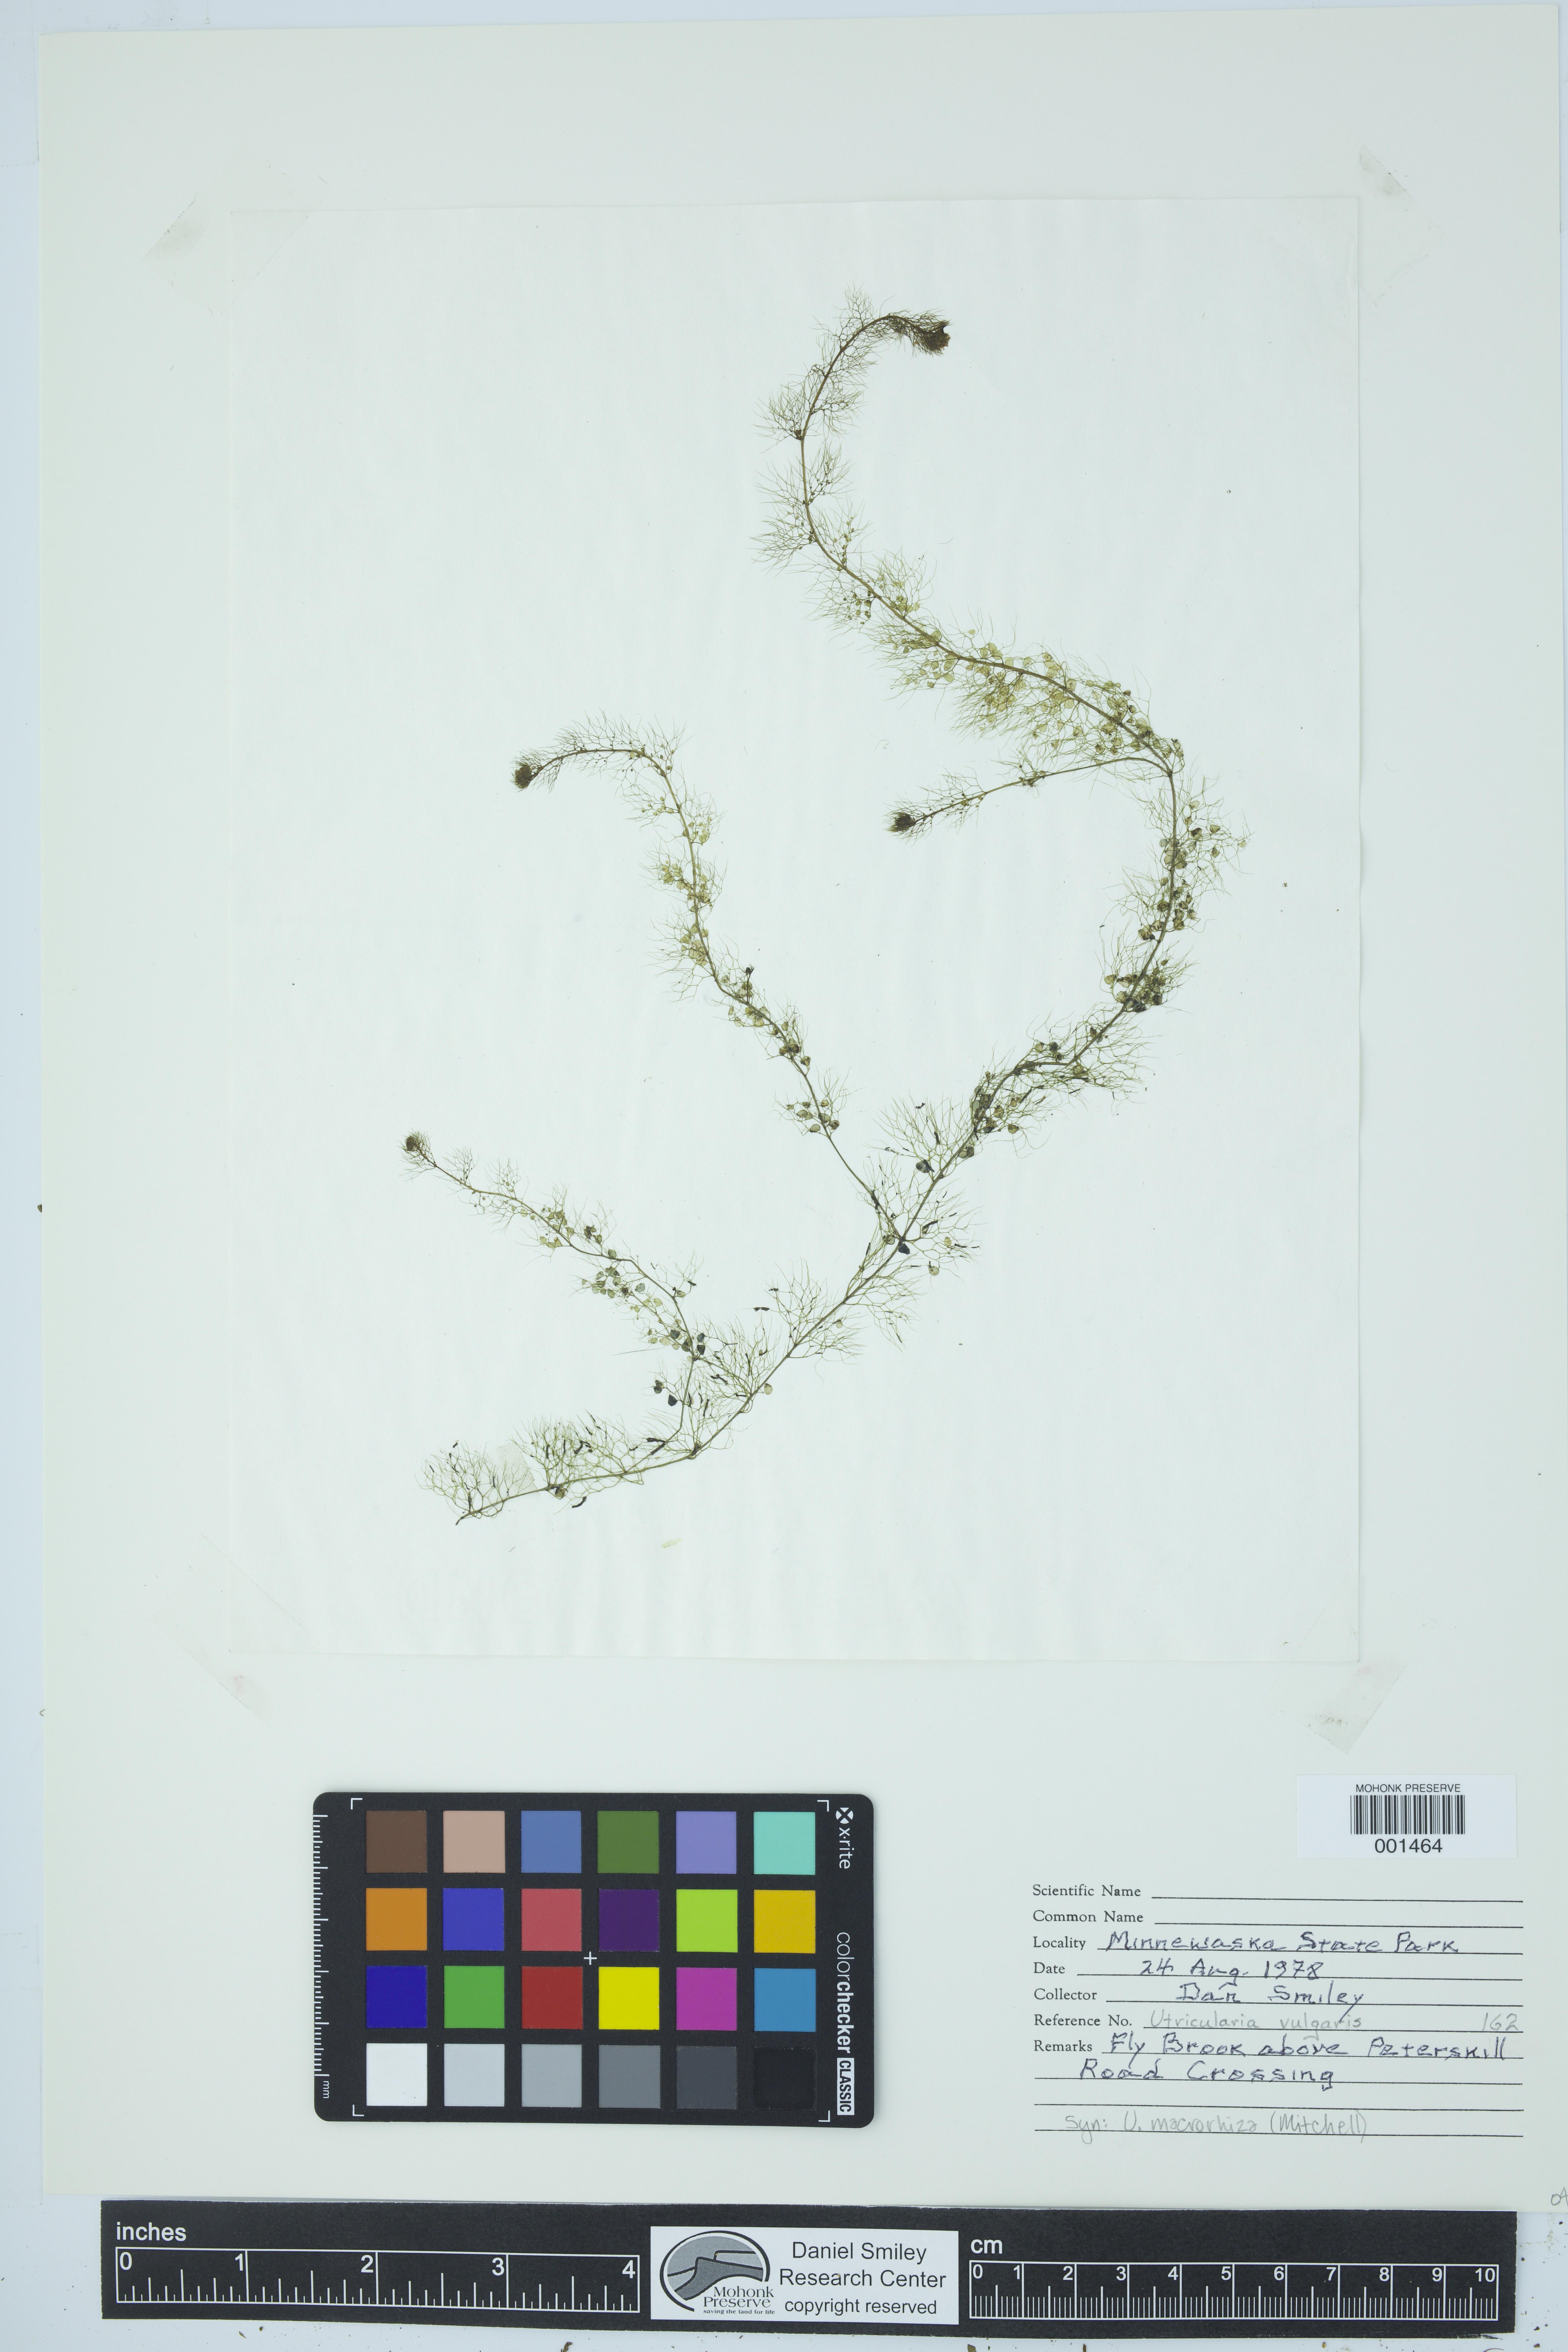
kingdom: Plantae
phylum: Tracheophyta
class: Magnoliopsida
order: Lamiales
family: Lentibulariaceae
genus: Utricularia
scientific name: Utricularia macrorhiza
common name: Common bladderwort
